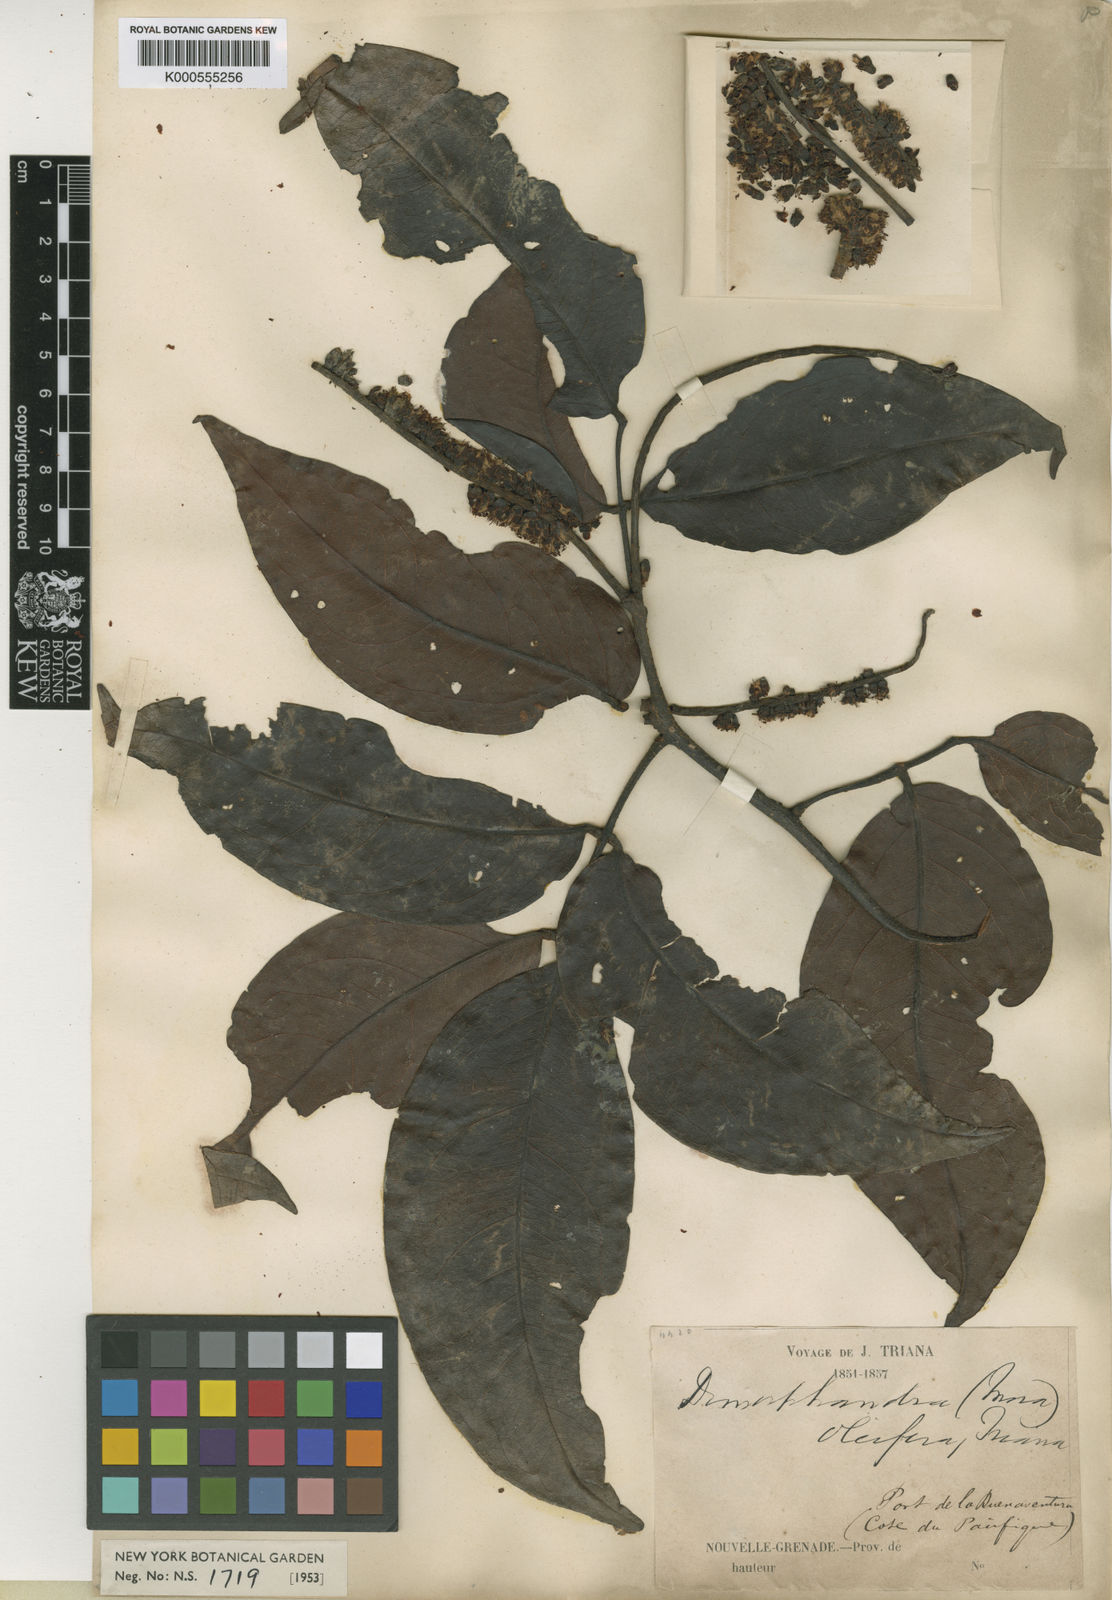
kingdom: Plantae
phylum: Tracheophyta
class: Magnoliopsida
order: Fabales
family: Fabaceae
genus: Mora
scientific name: Mora oleifera
